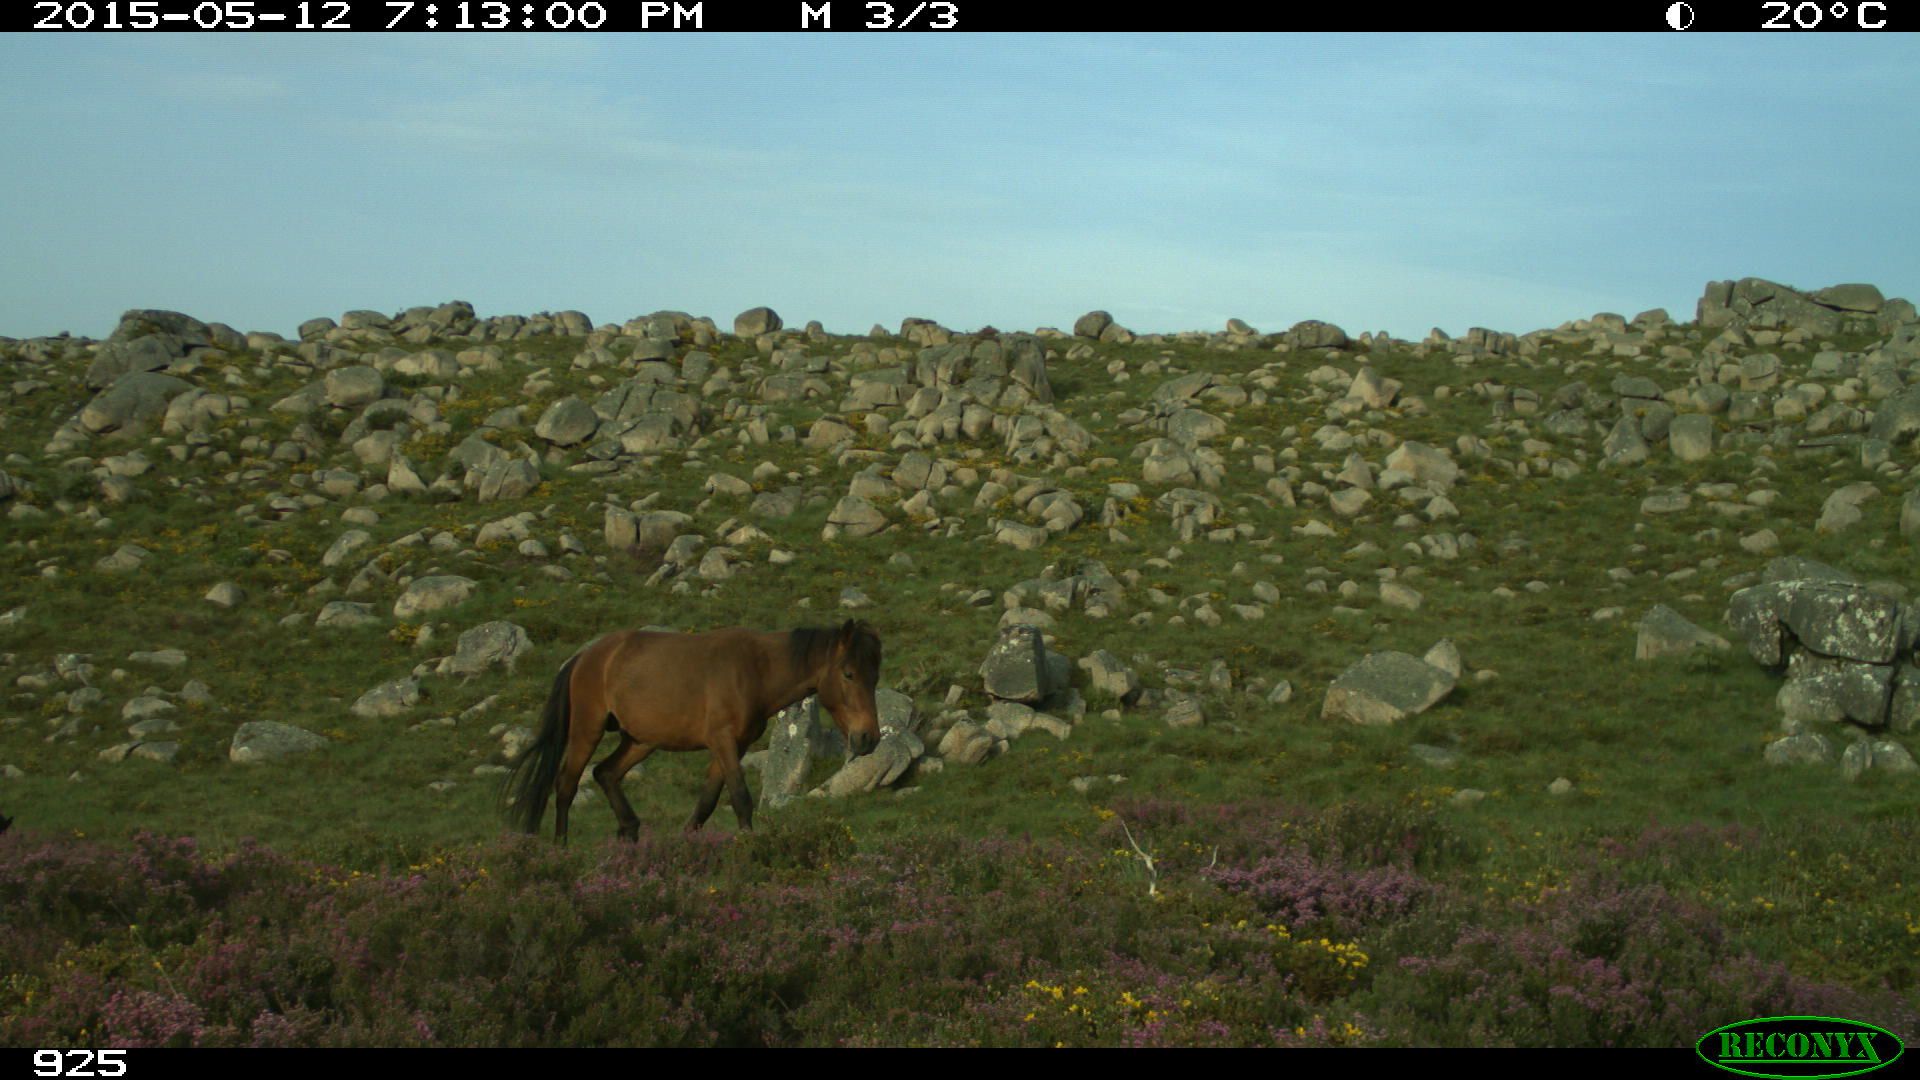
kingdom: Animalia
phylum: Chordata
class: Mammalia
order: Perissodactyla
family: Equidae
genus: Equus
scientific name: Equus caballus
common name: Horse
